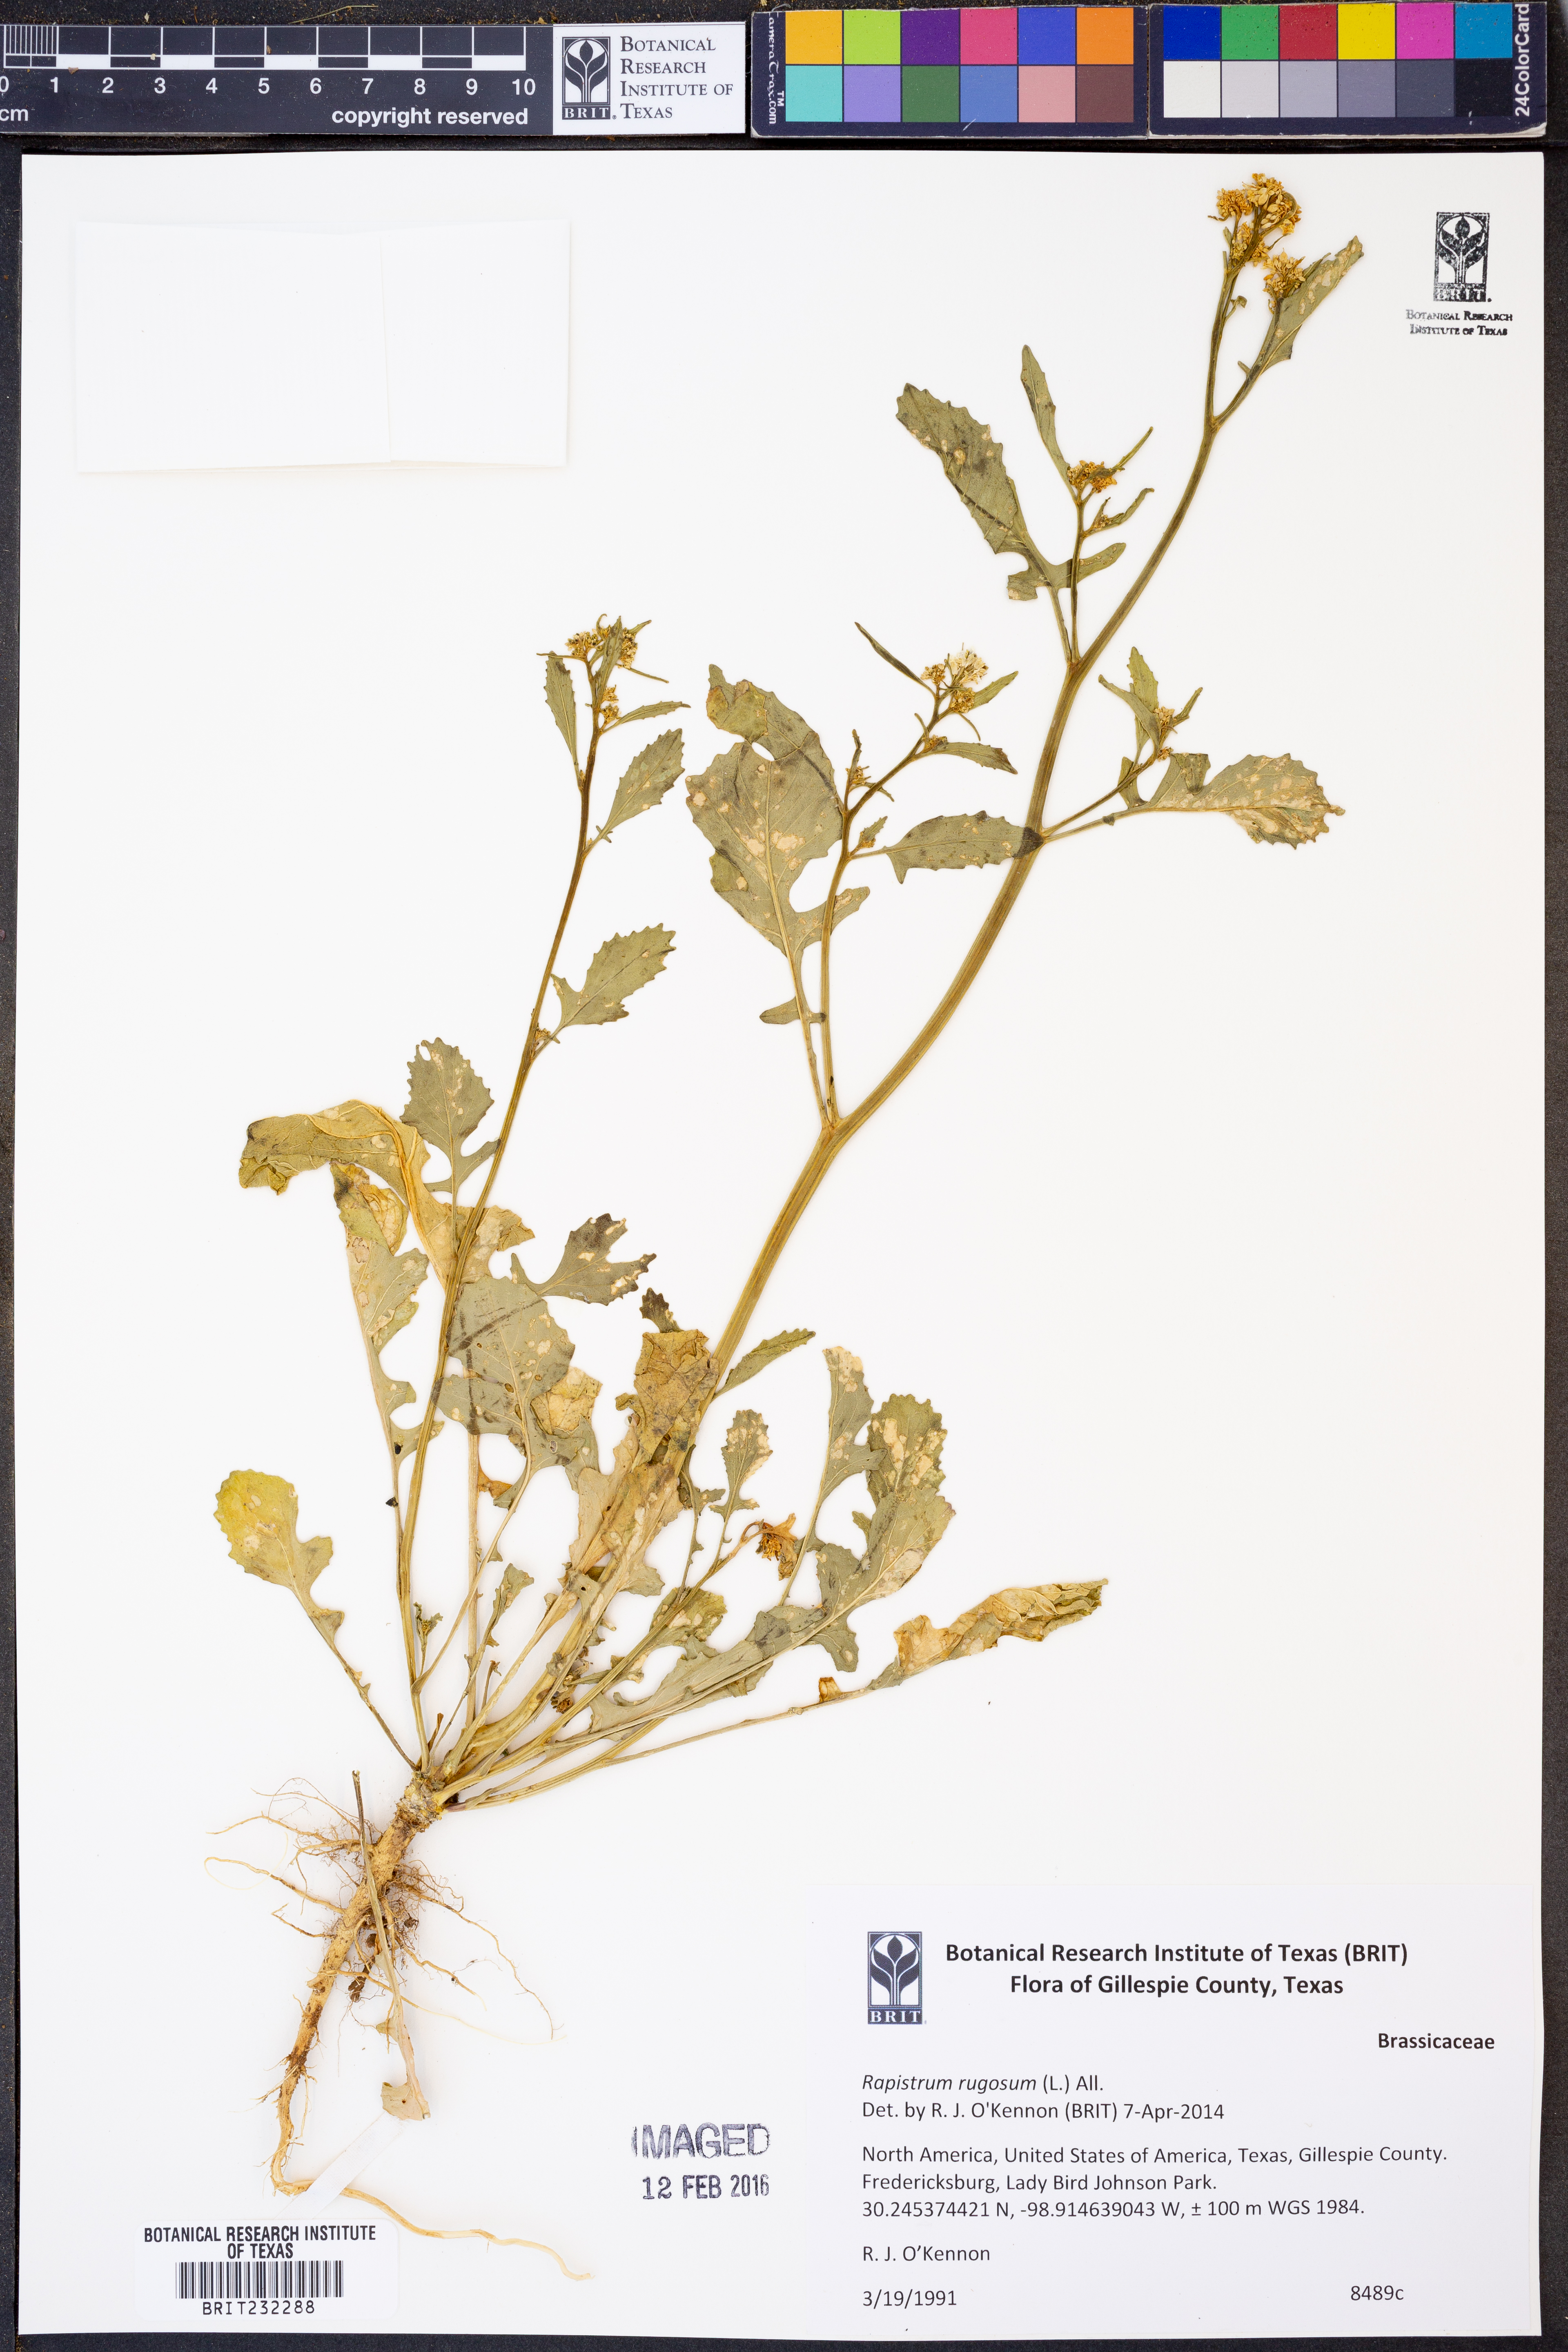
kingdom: Plantae
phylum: Tracheophyta
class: Magnoliopsida
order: Brassicales
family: Brassicaceae
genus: Rapistrum
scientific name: Rapistrum rugosum
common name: Annual bastardcabbage
